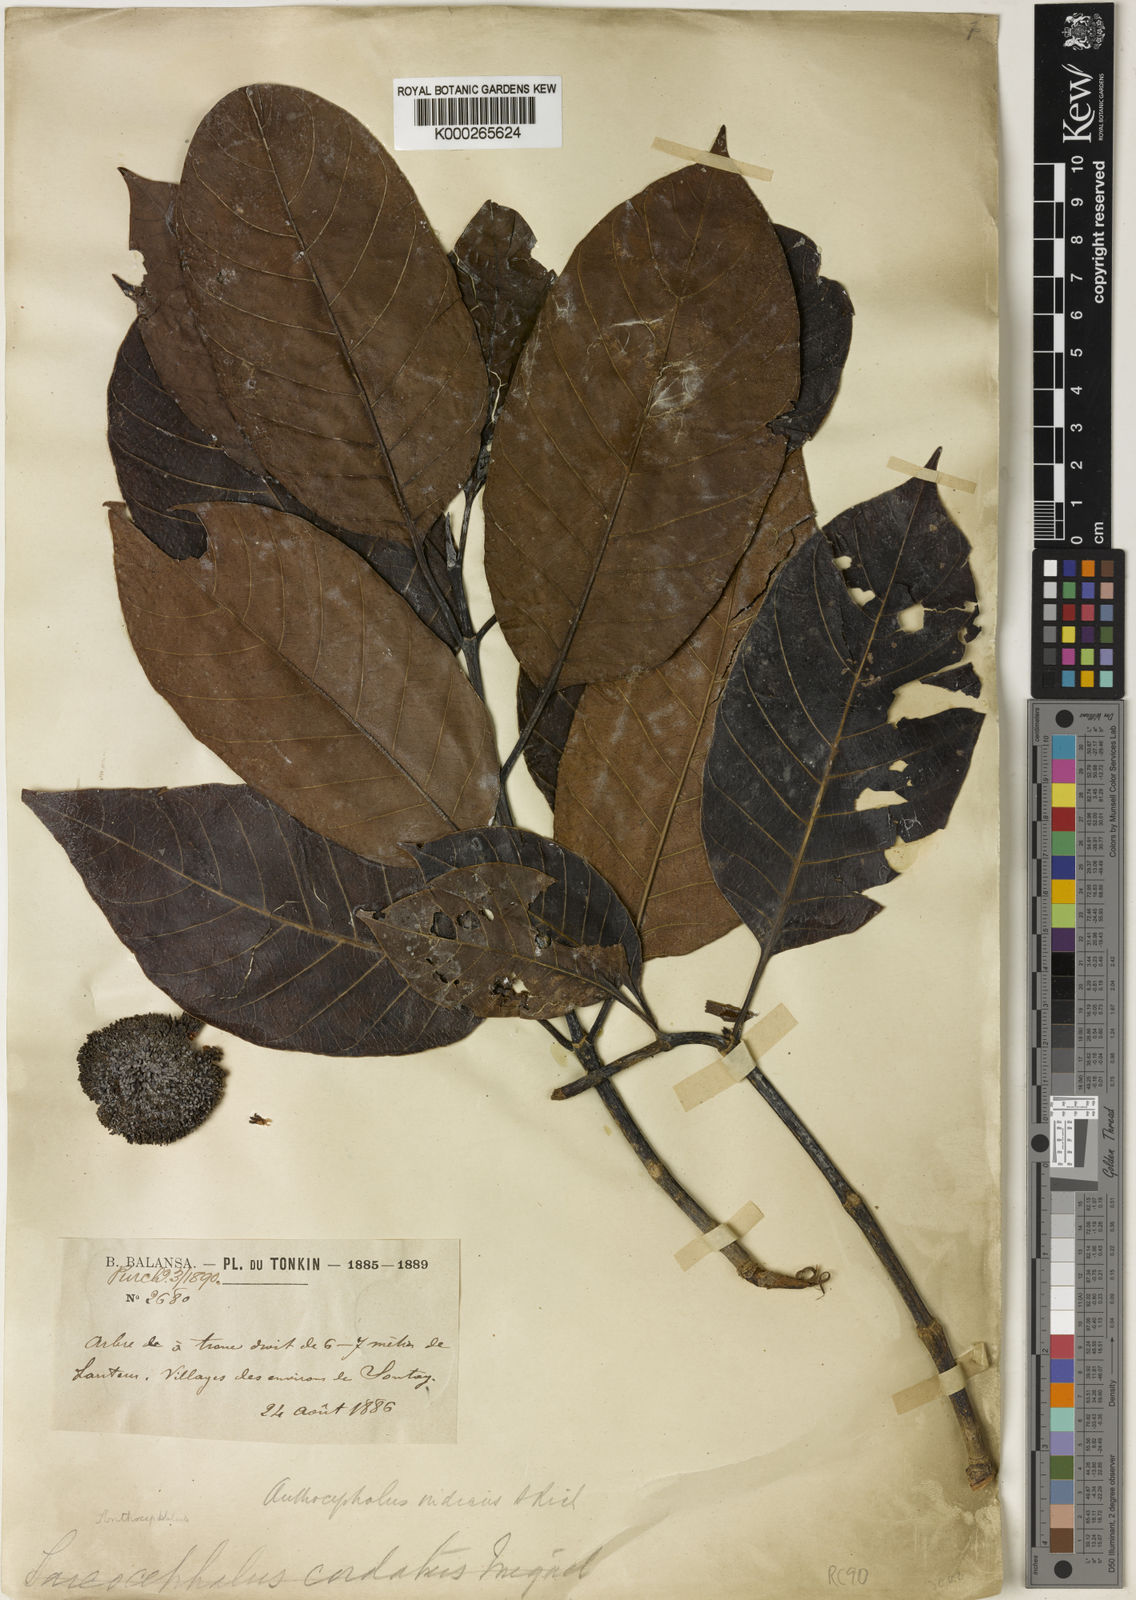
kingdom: Plantae
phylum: Tracheophyta
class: Magnoliopsida
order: Gentianales
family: Rubiaceae
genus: Neolamarckia
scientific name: Neolamarckia cadamba
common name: Leichhardt-pine
